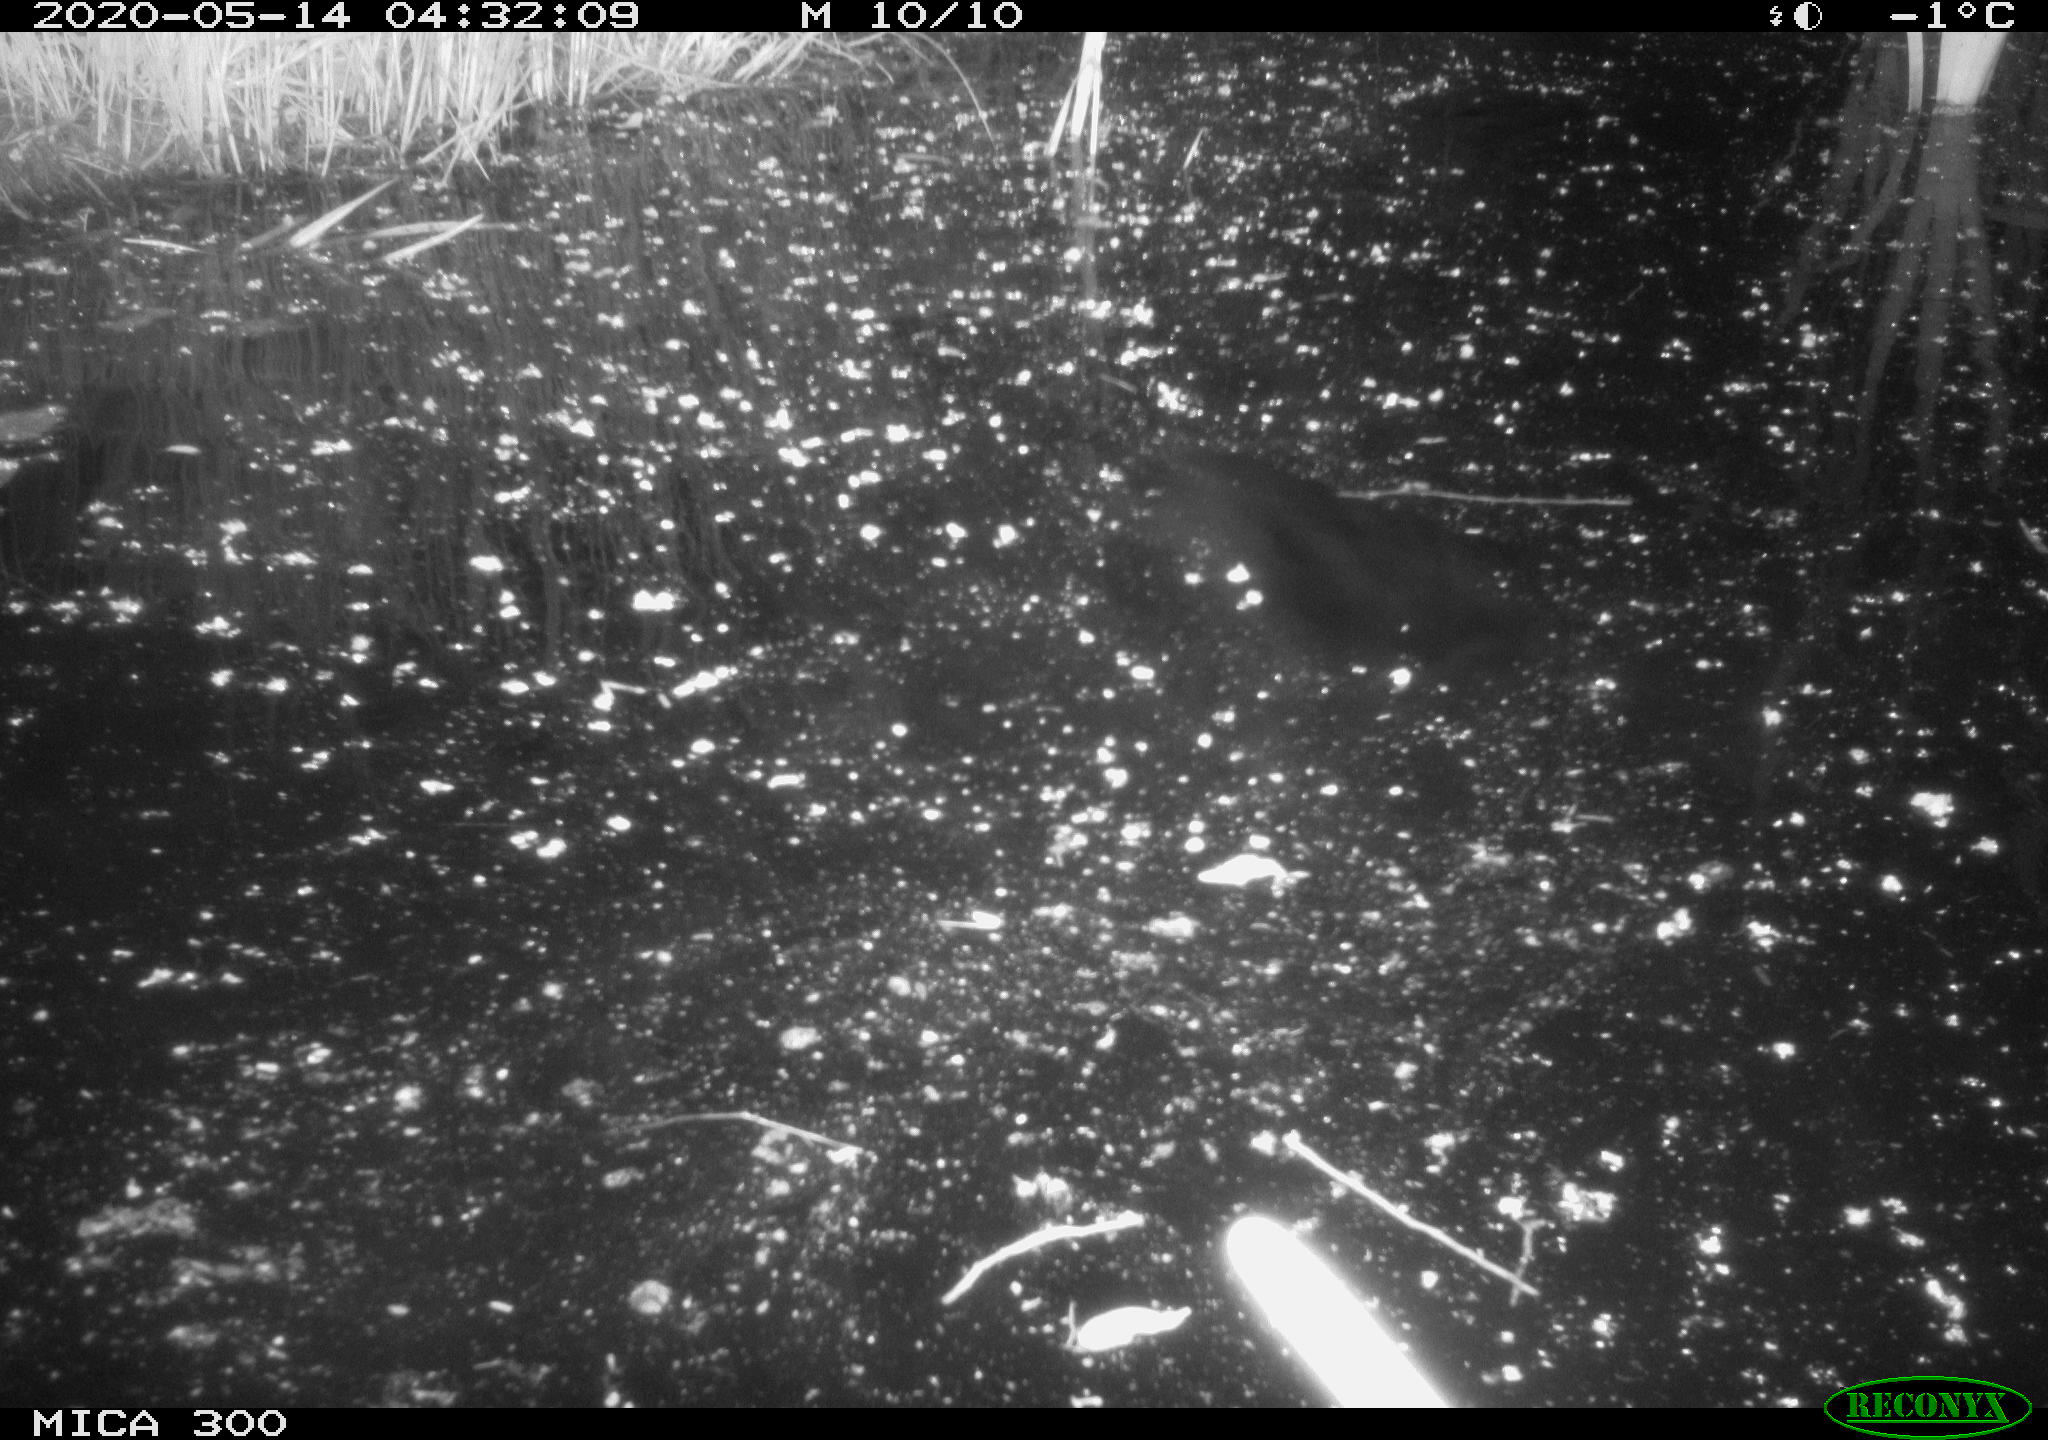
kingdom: Animalia
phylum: Chordata
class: Mammalia
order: Rodentia
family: Castoridae
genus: Castor
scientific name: Castor fiber
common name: Eurasian beaver
